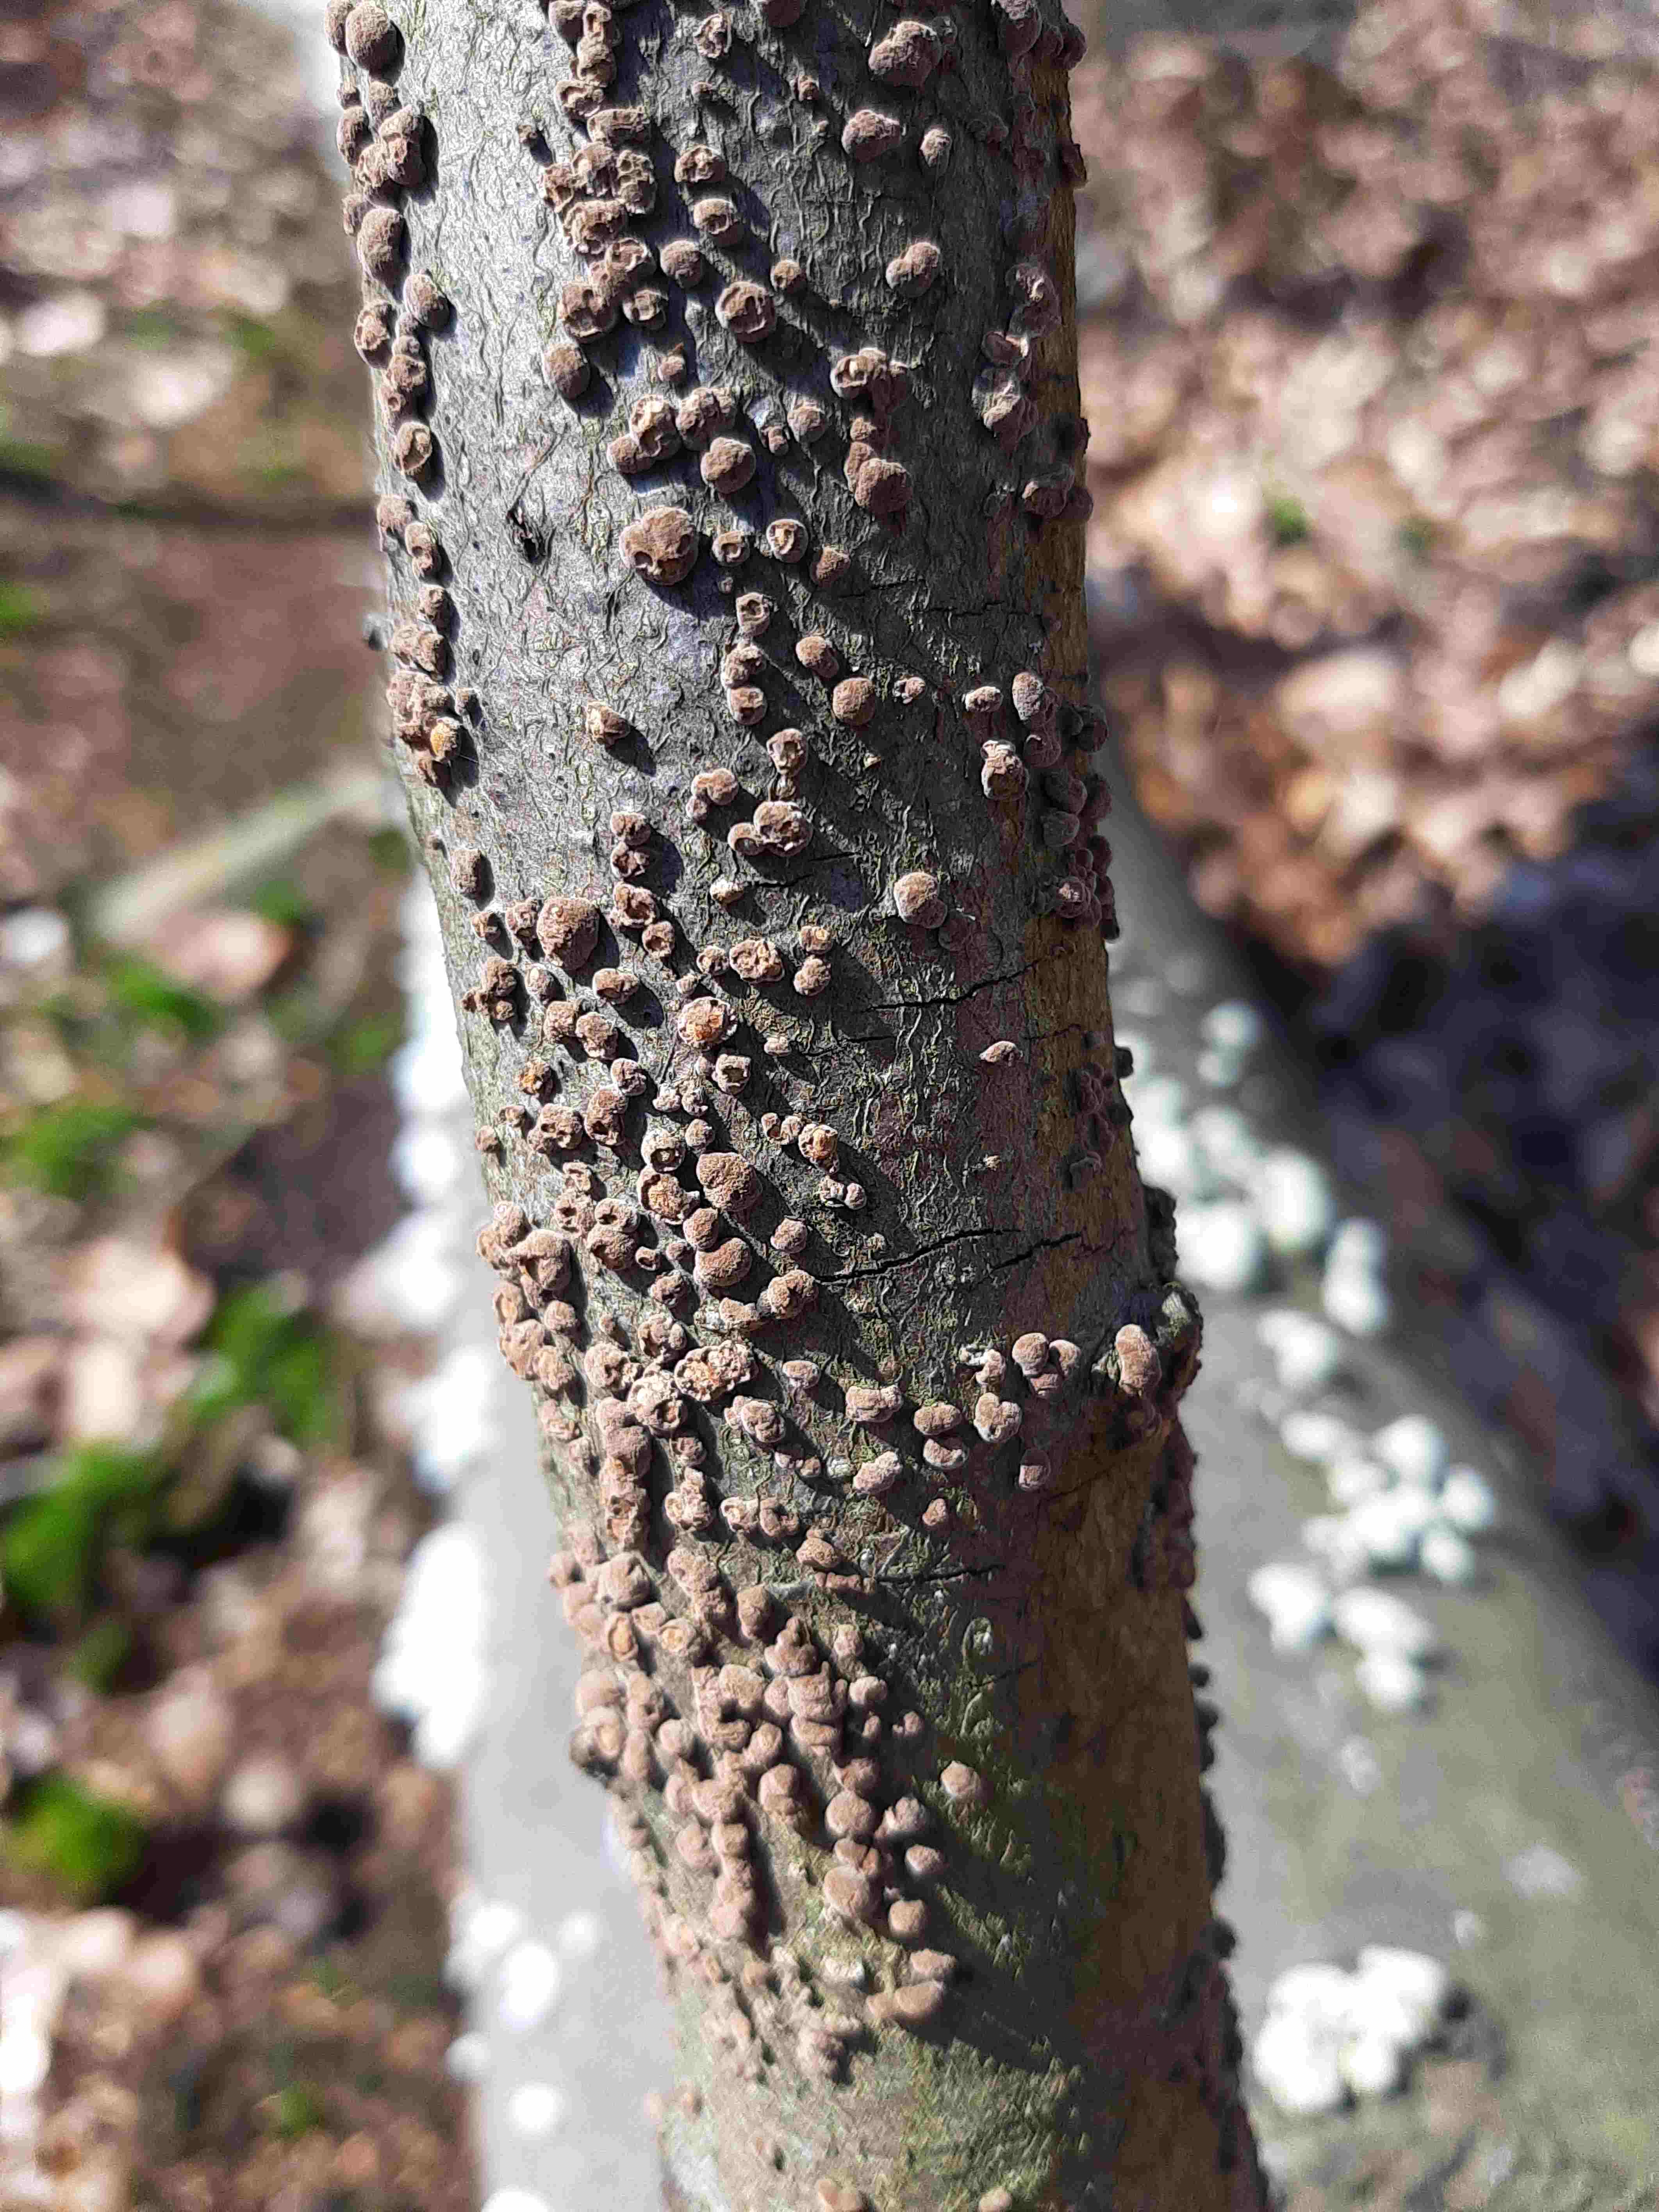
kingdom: Fungi
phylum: Ascomycota
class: Sordariomycetes
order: Xylariales
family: Hypoxylaceae
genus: Hypoxylon
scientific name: Hypoxylon fragiforme
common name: kuljordbær
